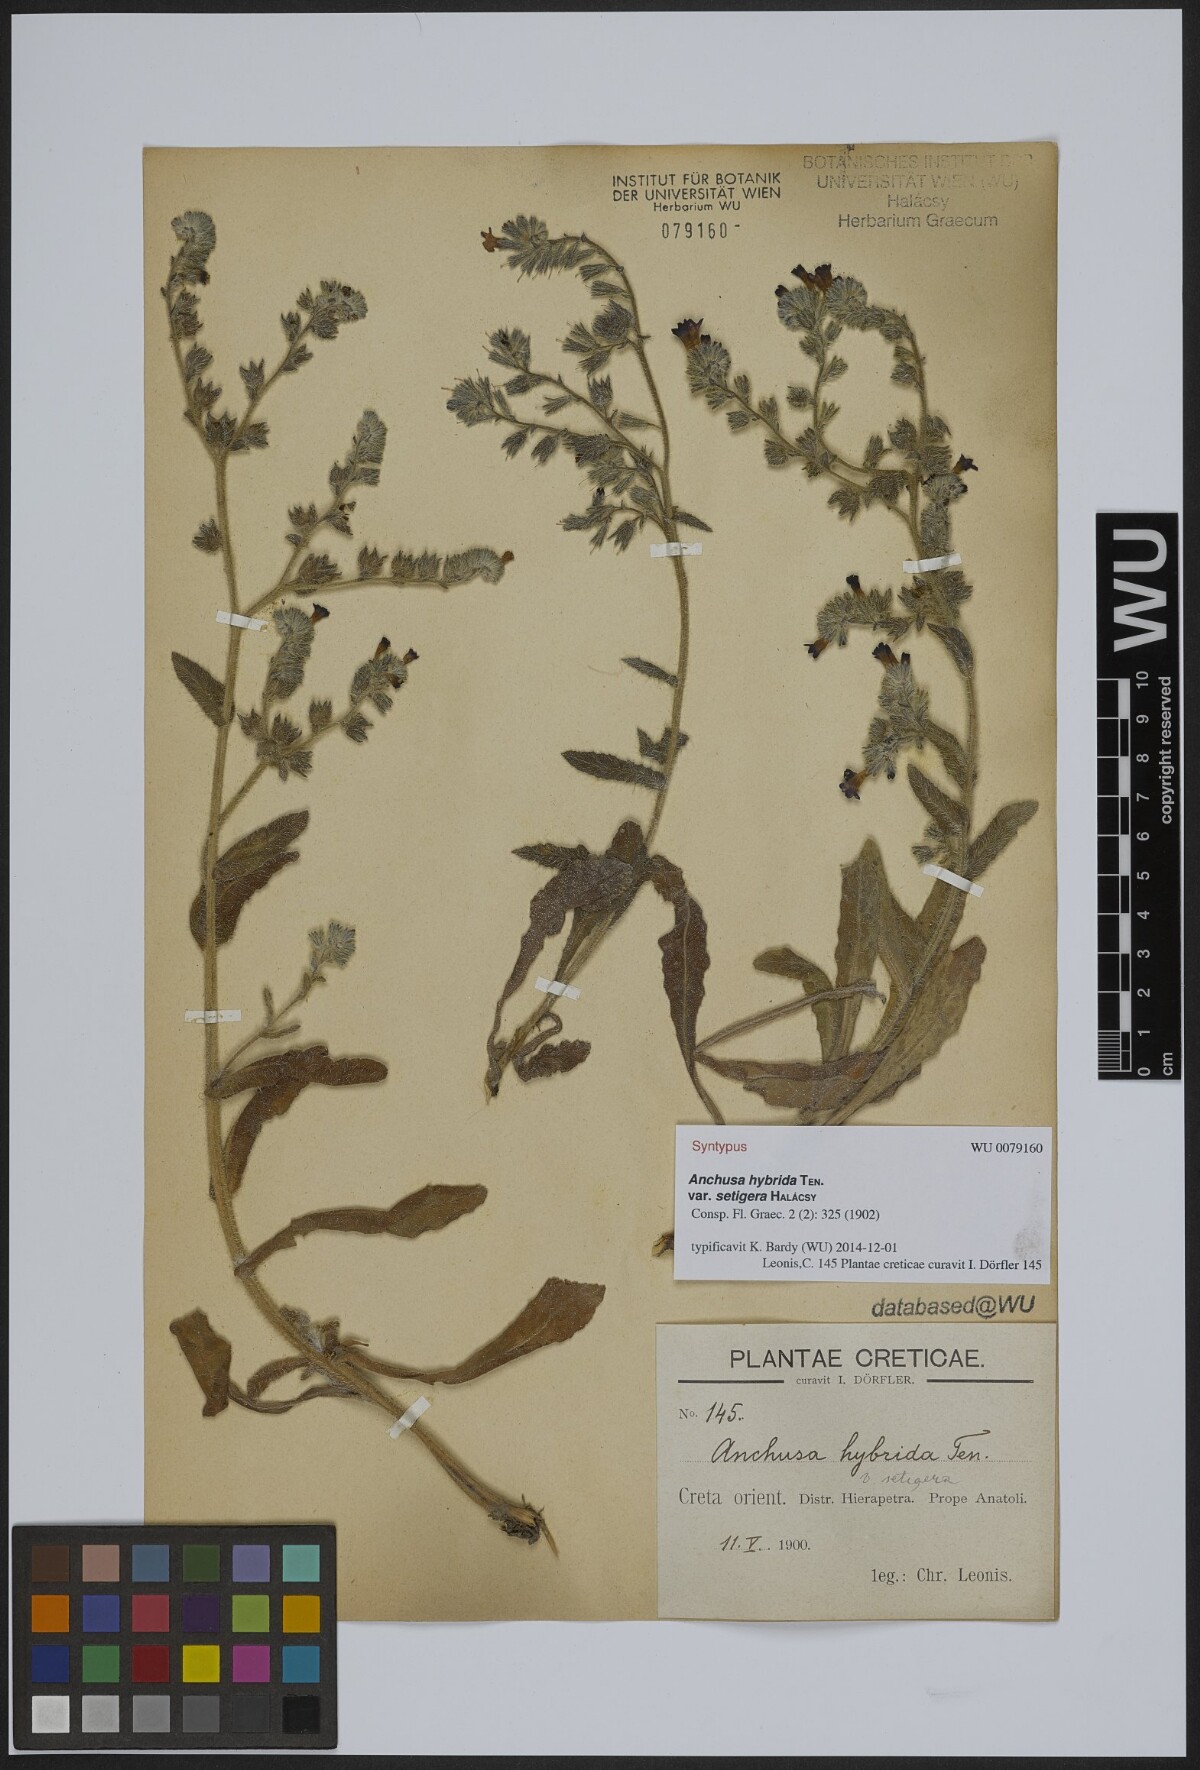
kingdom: Plantae
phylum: Tracheophyta
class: Magnoliopsida
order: Boraginales
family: Boraginaceae
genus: Anchusa
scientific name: Anchusa hybrida
